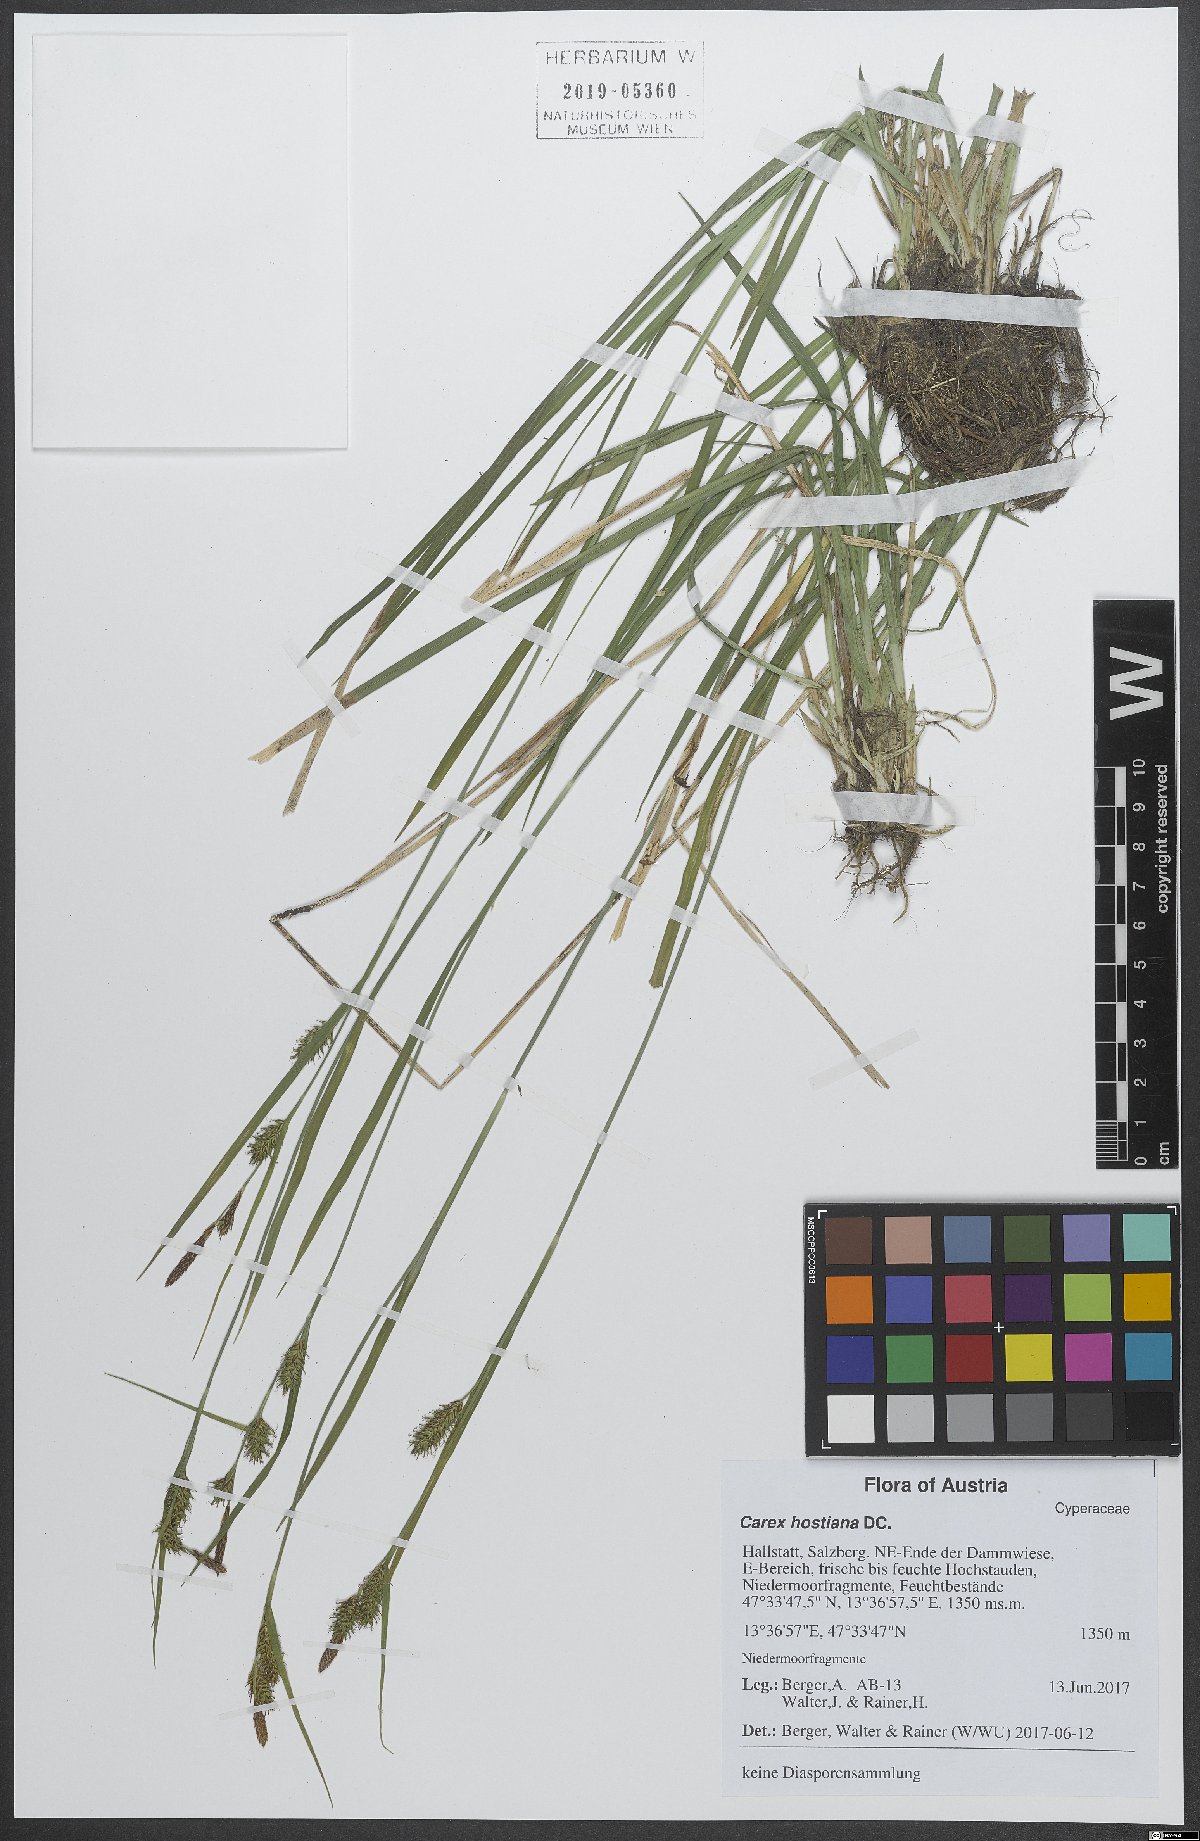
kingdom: Plantae
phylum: Tracheophyta
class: Liliopsida
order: Poales
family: Cyperaceae
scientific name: Cyperaceae
